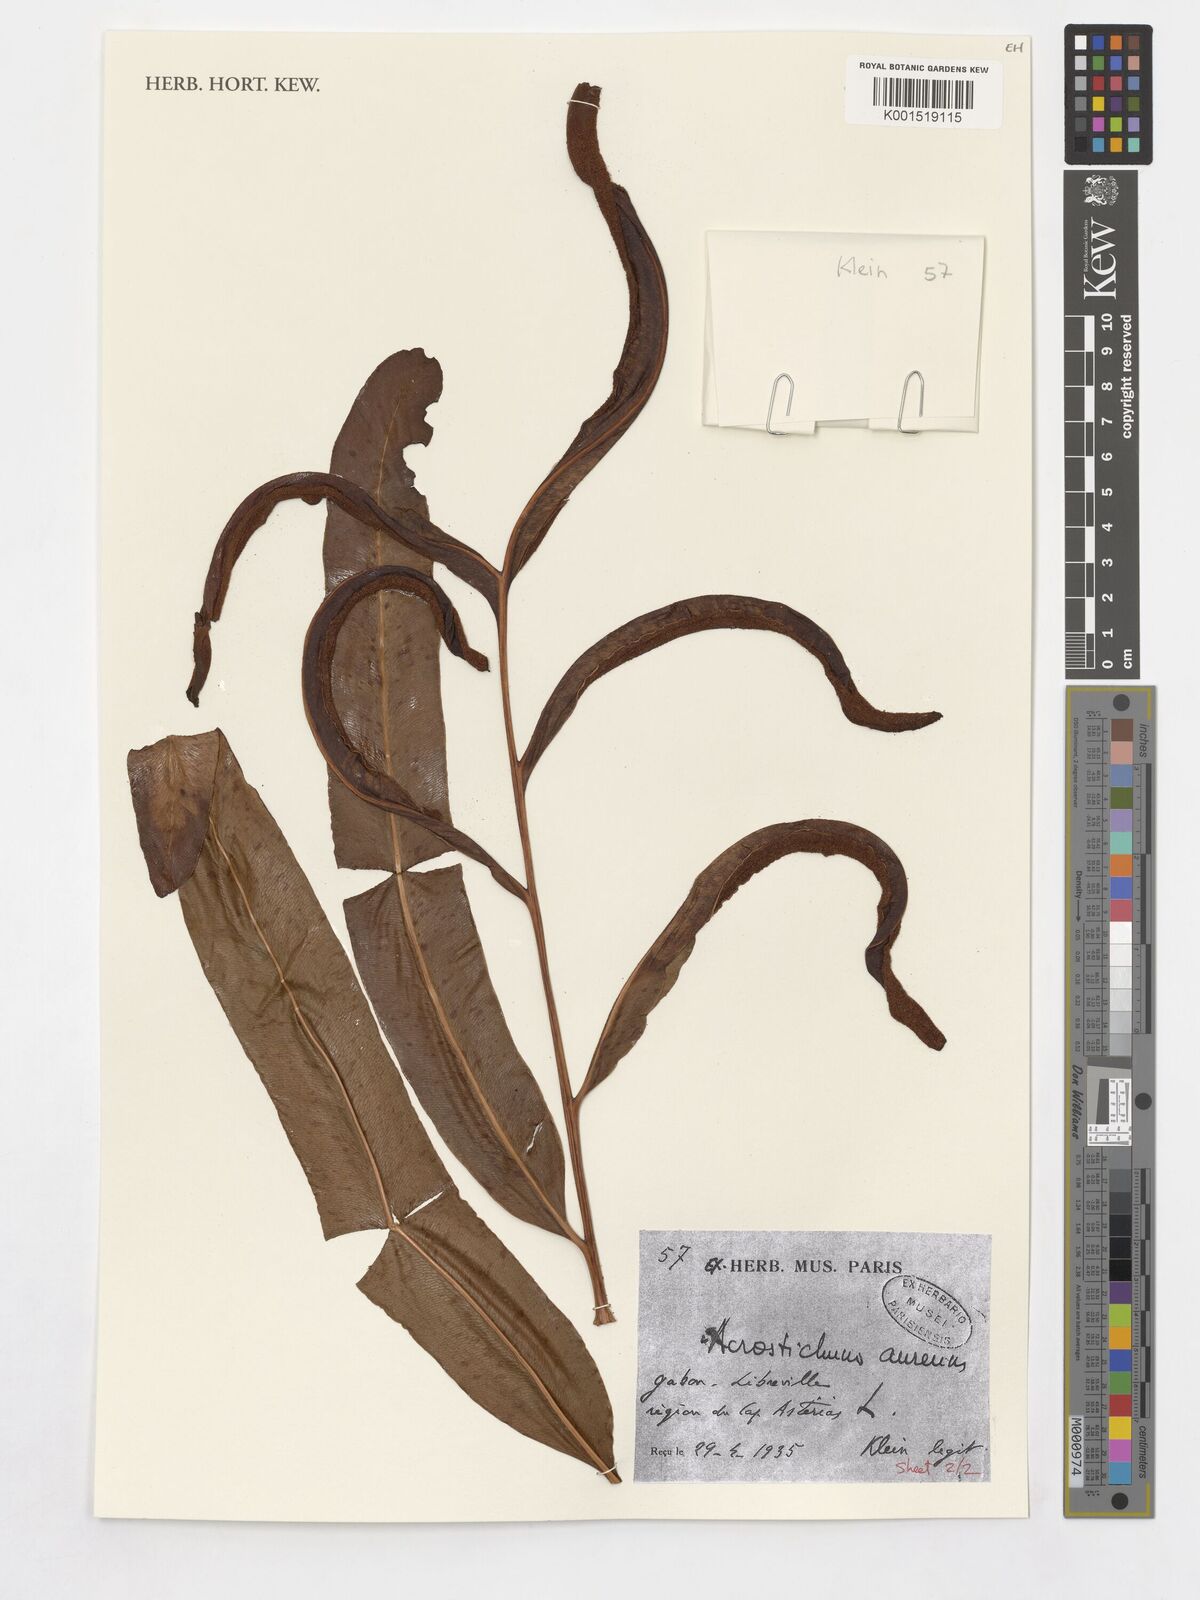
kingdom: Plantae
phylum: Tracheophyta
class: Polypodiopsida
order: Polypodiales
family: Pteridaceae
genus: Acrostichum
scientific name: Acrostichum aureum
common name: Leather fern
